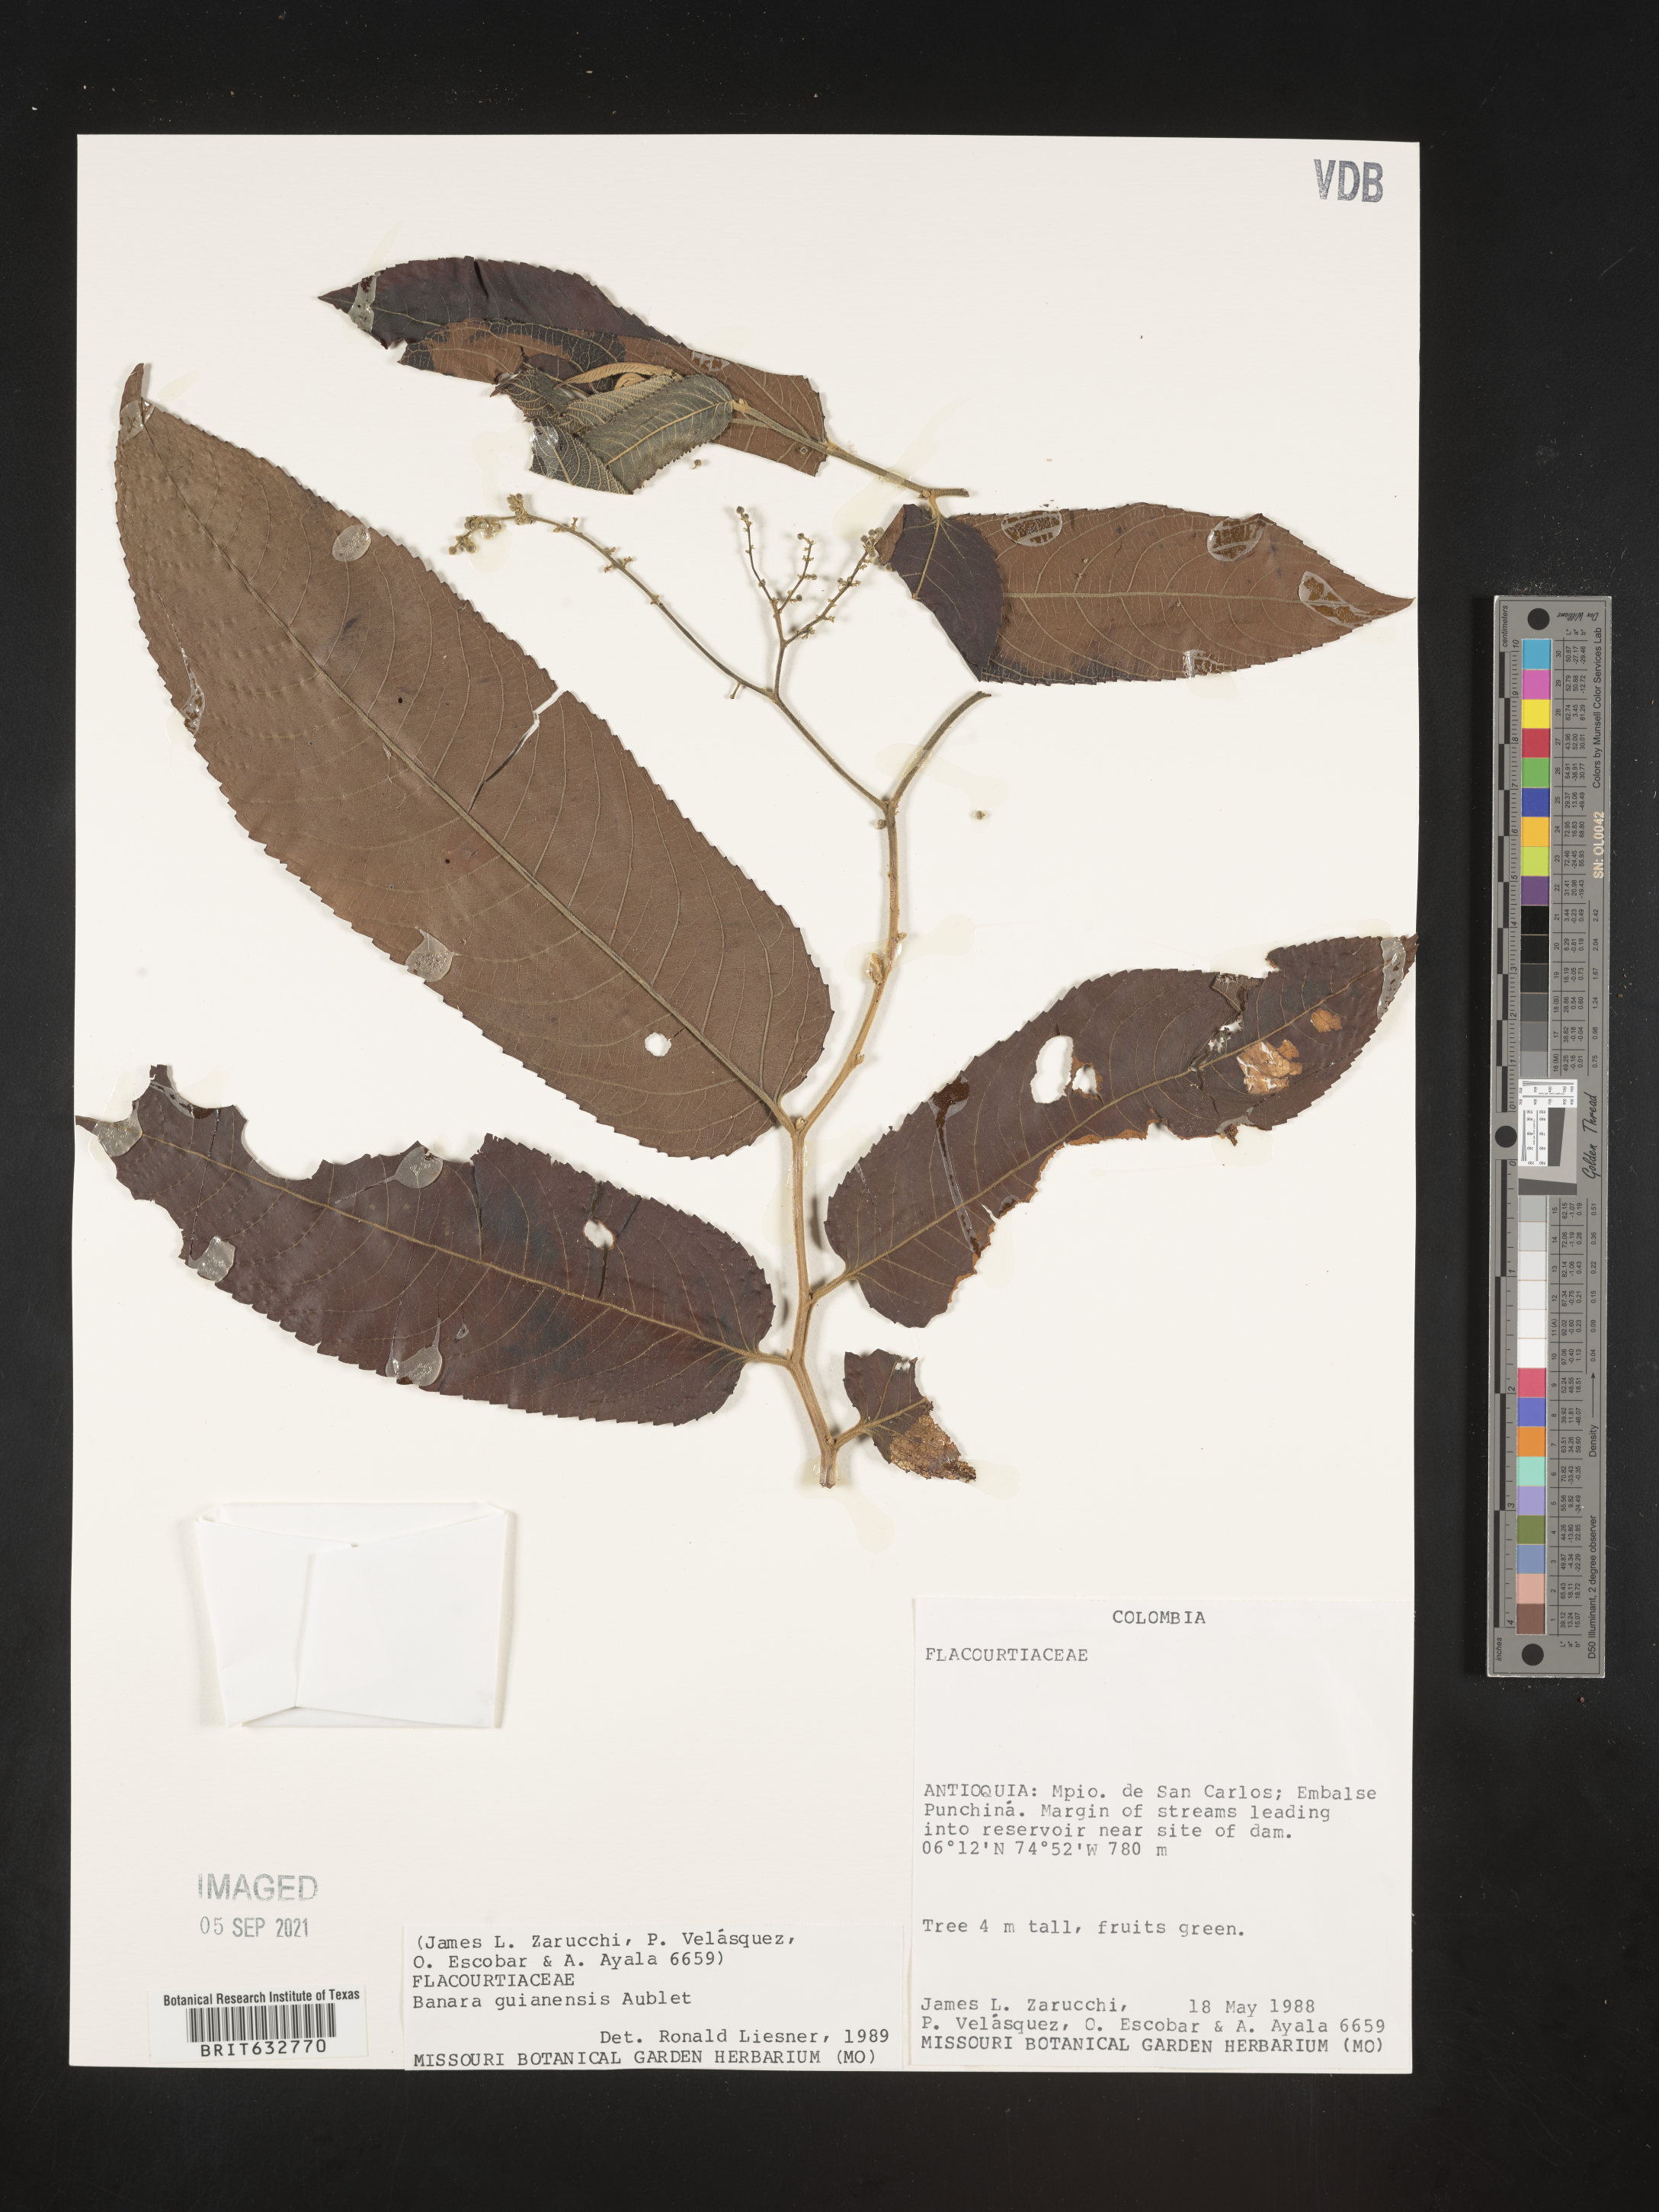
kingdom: Plantae
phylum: Tracheophyta
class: Magnoliopsida
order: Malpighiales
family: Salicaceae
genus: Banara
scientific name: Banara
